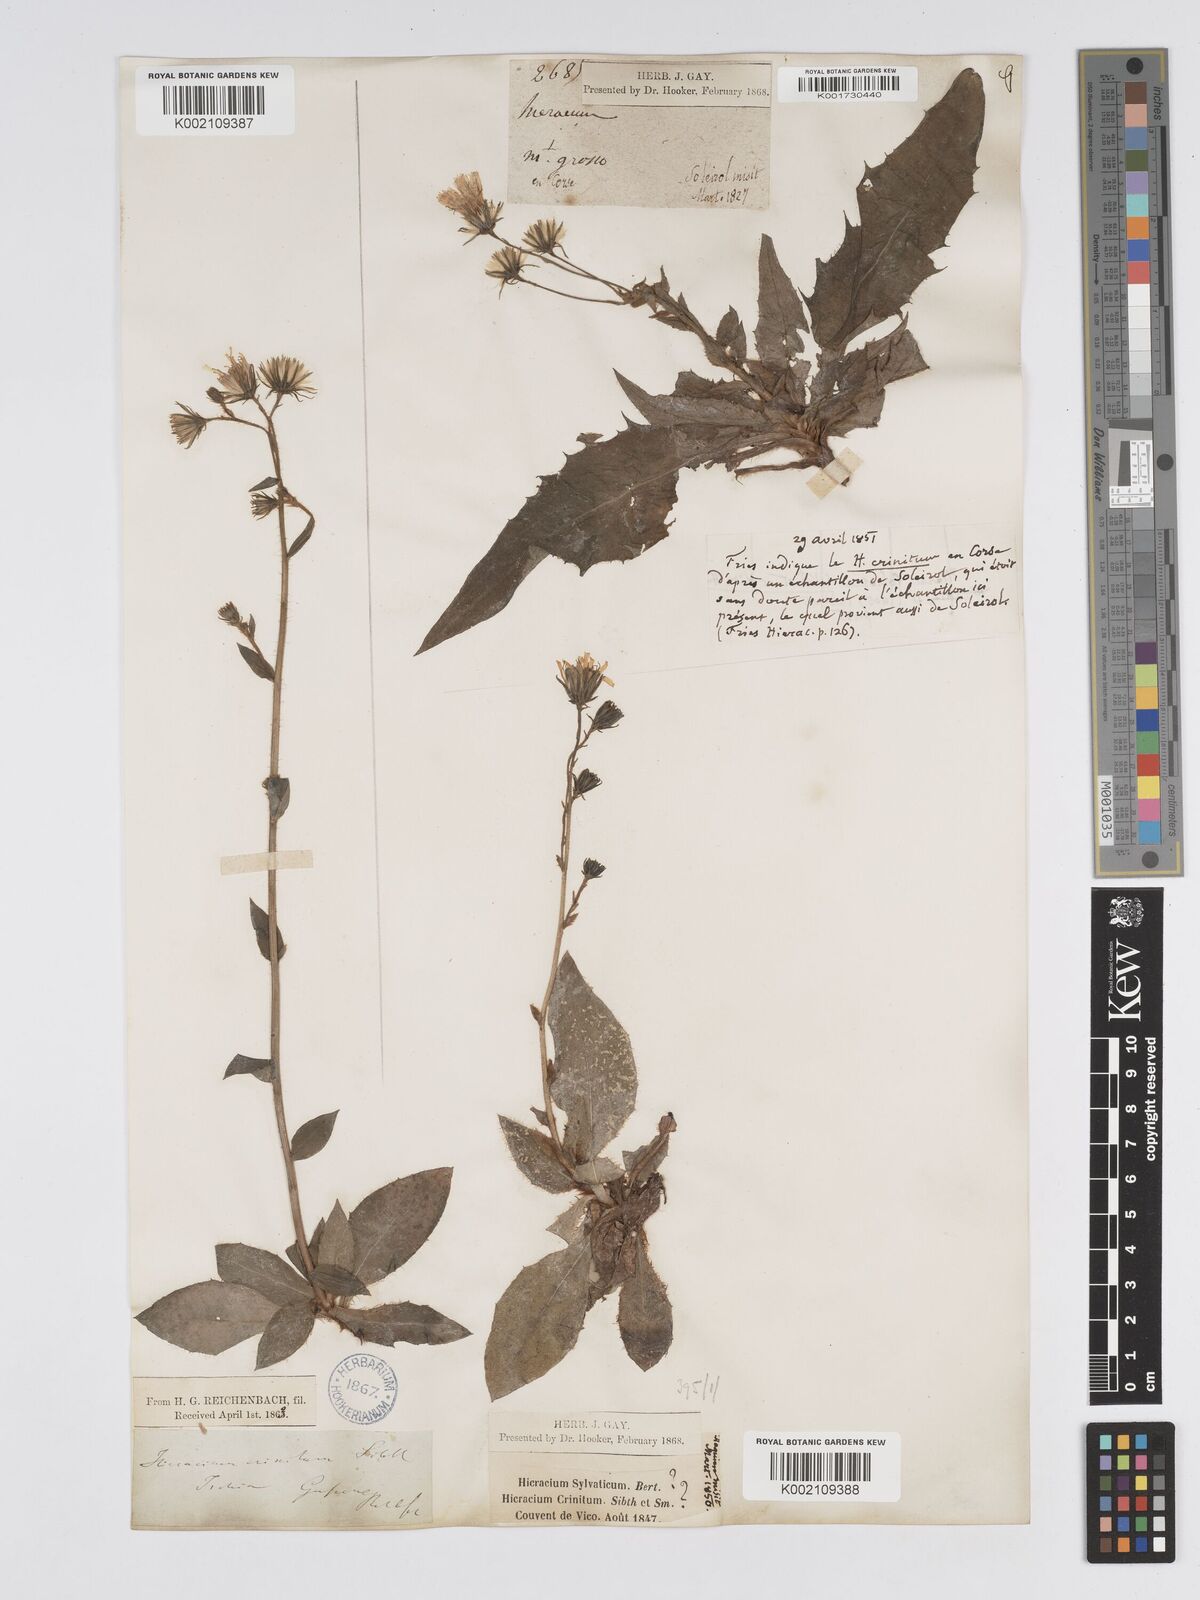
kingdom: Plantae
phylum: Tracheophyta
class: Magnoliopsida
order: Asterales
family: Asteraceae
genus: Hieracium
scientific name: Hieracium racemosum
